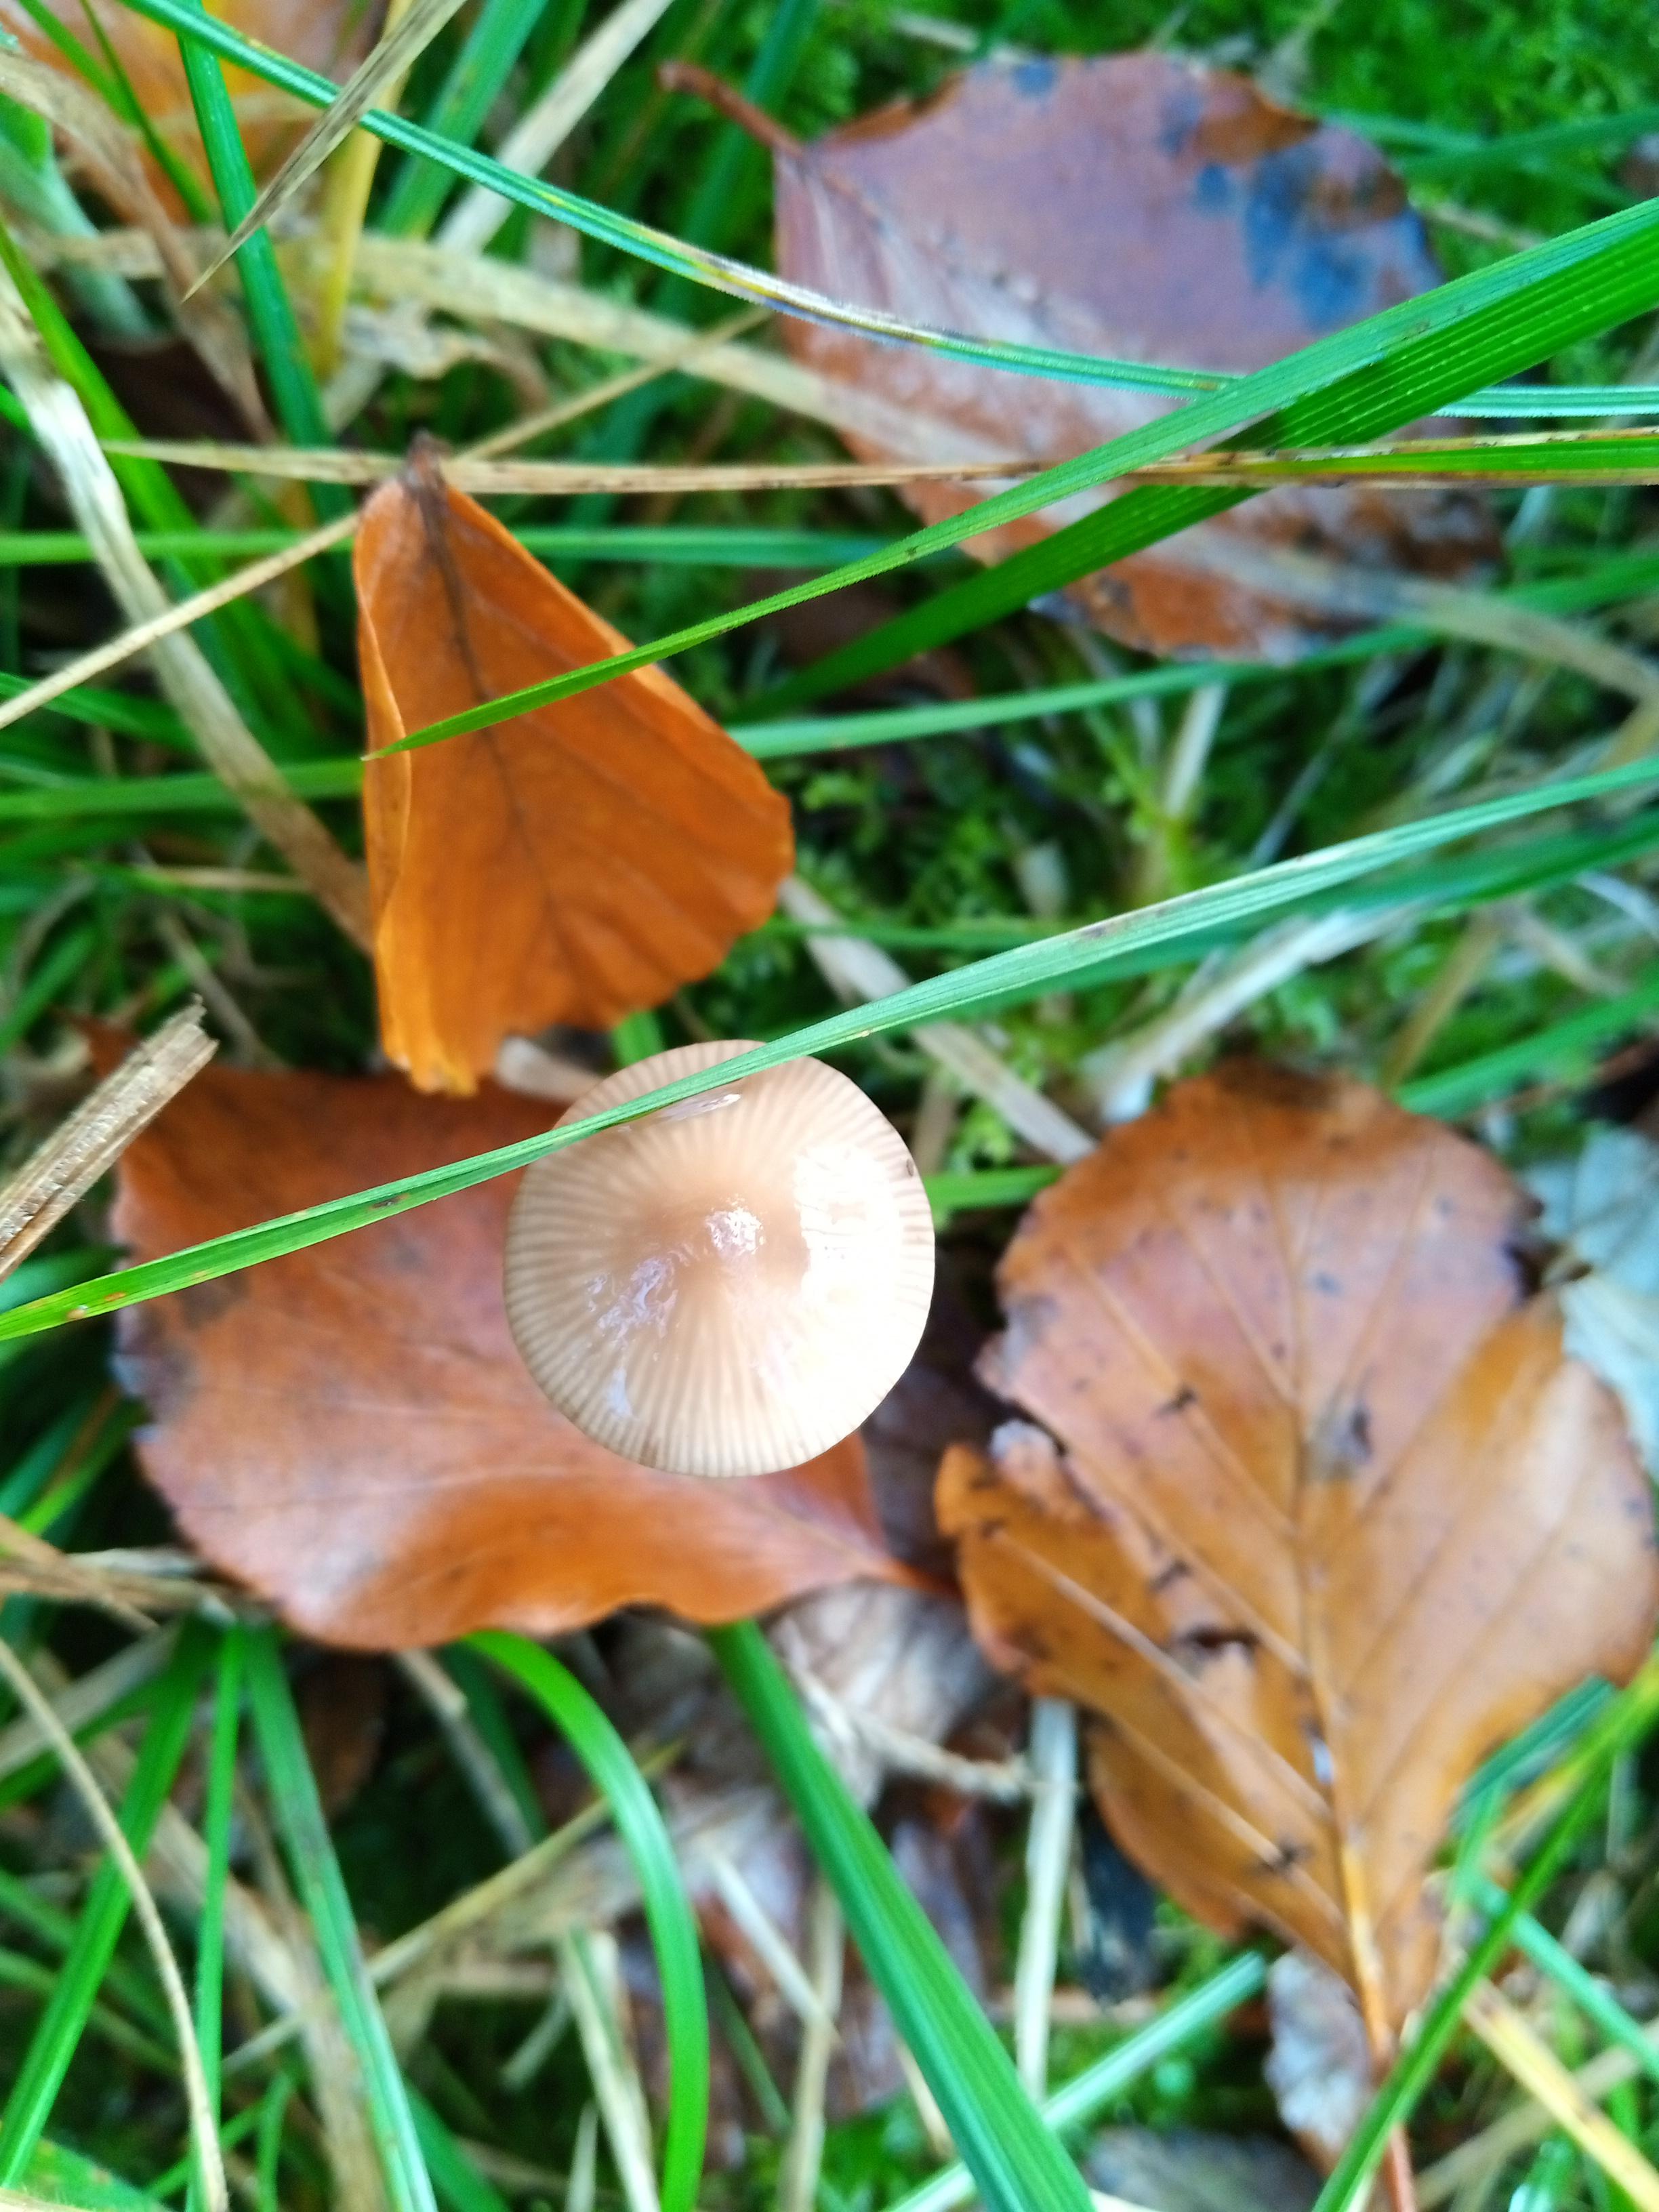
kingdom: Fungi
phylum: Basidiomycota
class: Agaricomycetes
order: Agaricales
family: Omphalotaceae
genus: Mycetinis
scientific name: Mycetinis alliaceus
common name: stor løghat
